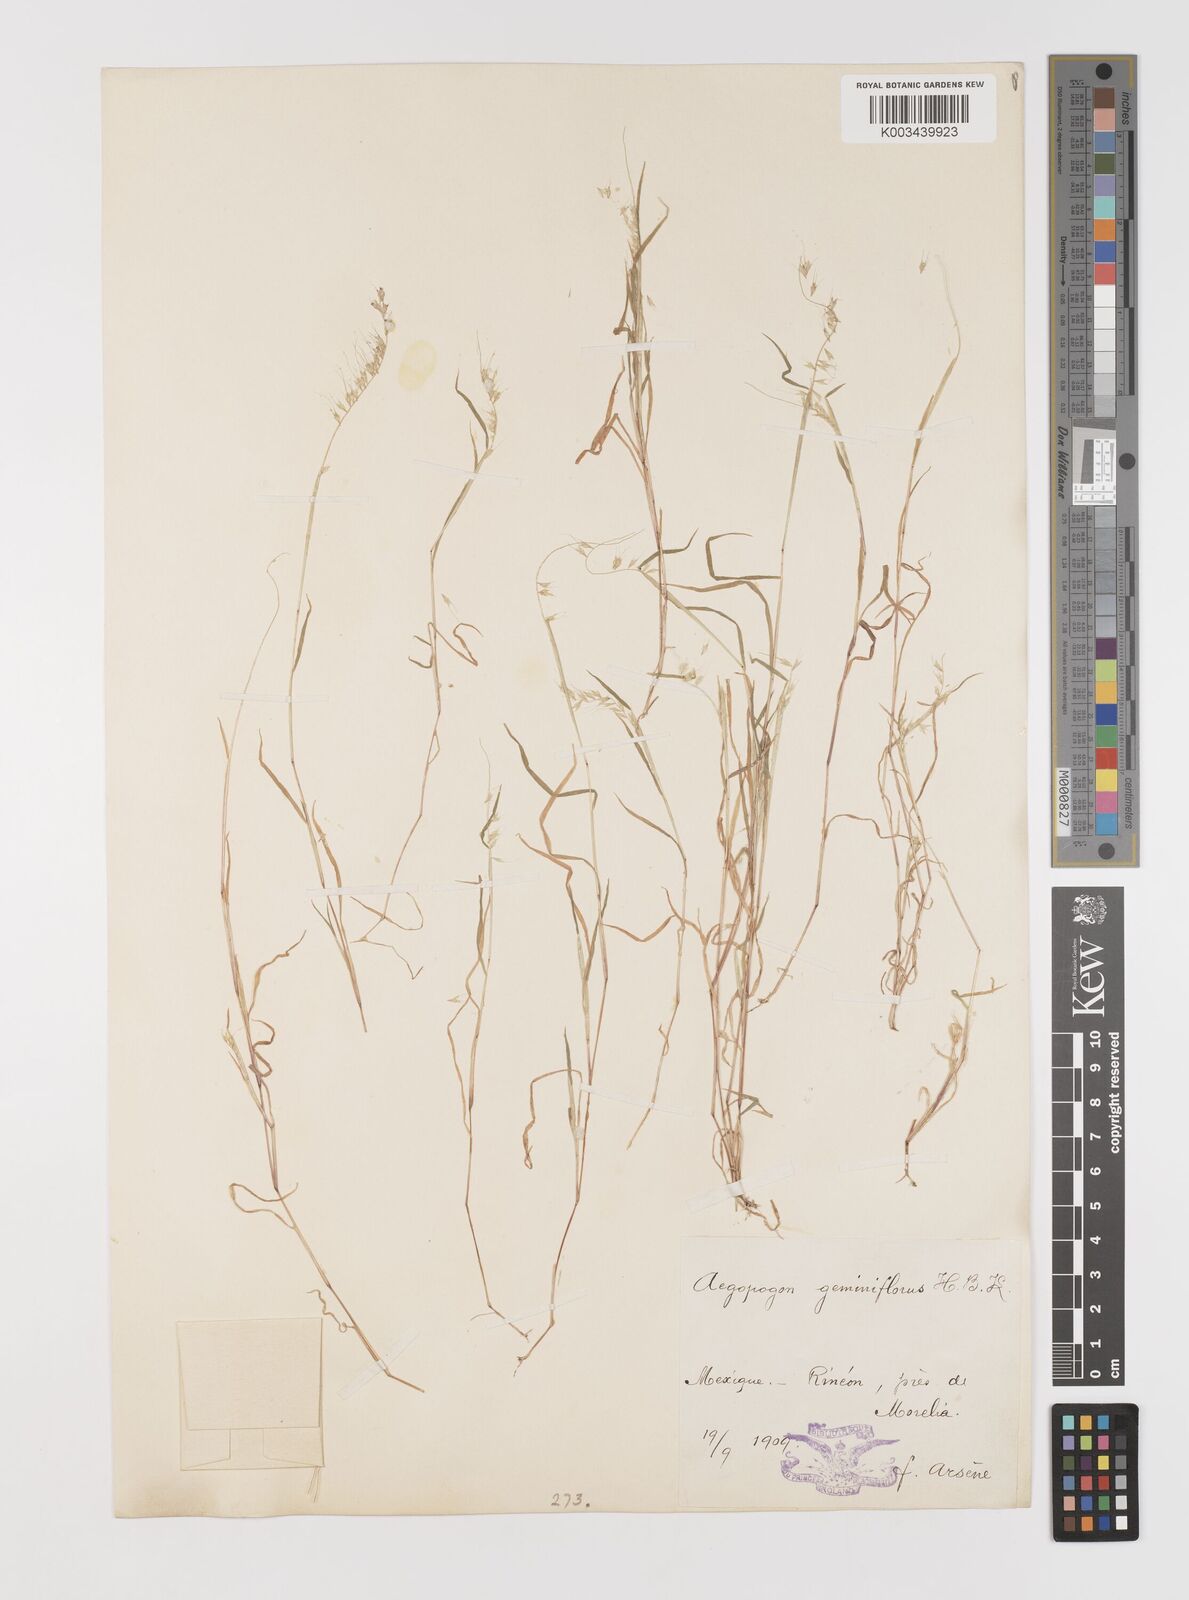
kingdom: Plantae
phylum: Tracheophyta
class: Liliopsida
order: Poales
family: Poaceae
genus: Muhlenbergia
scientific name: Muhlenbergia uniseta
